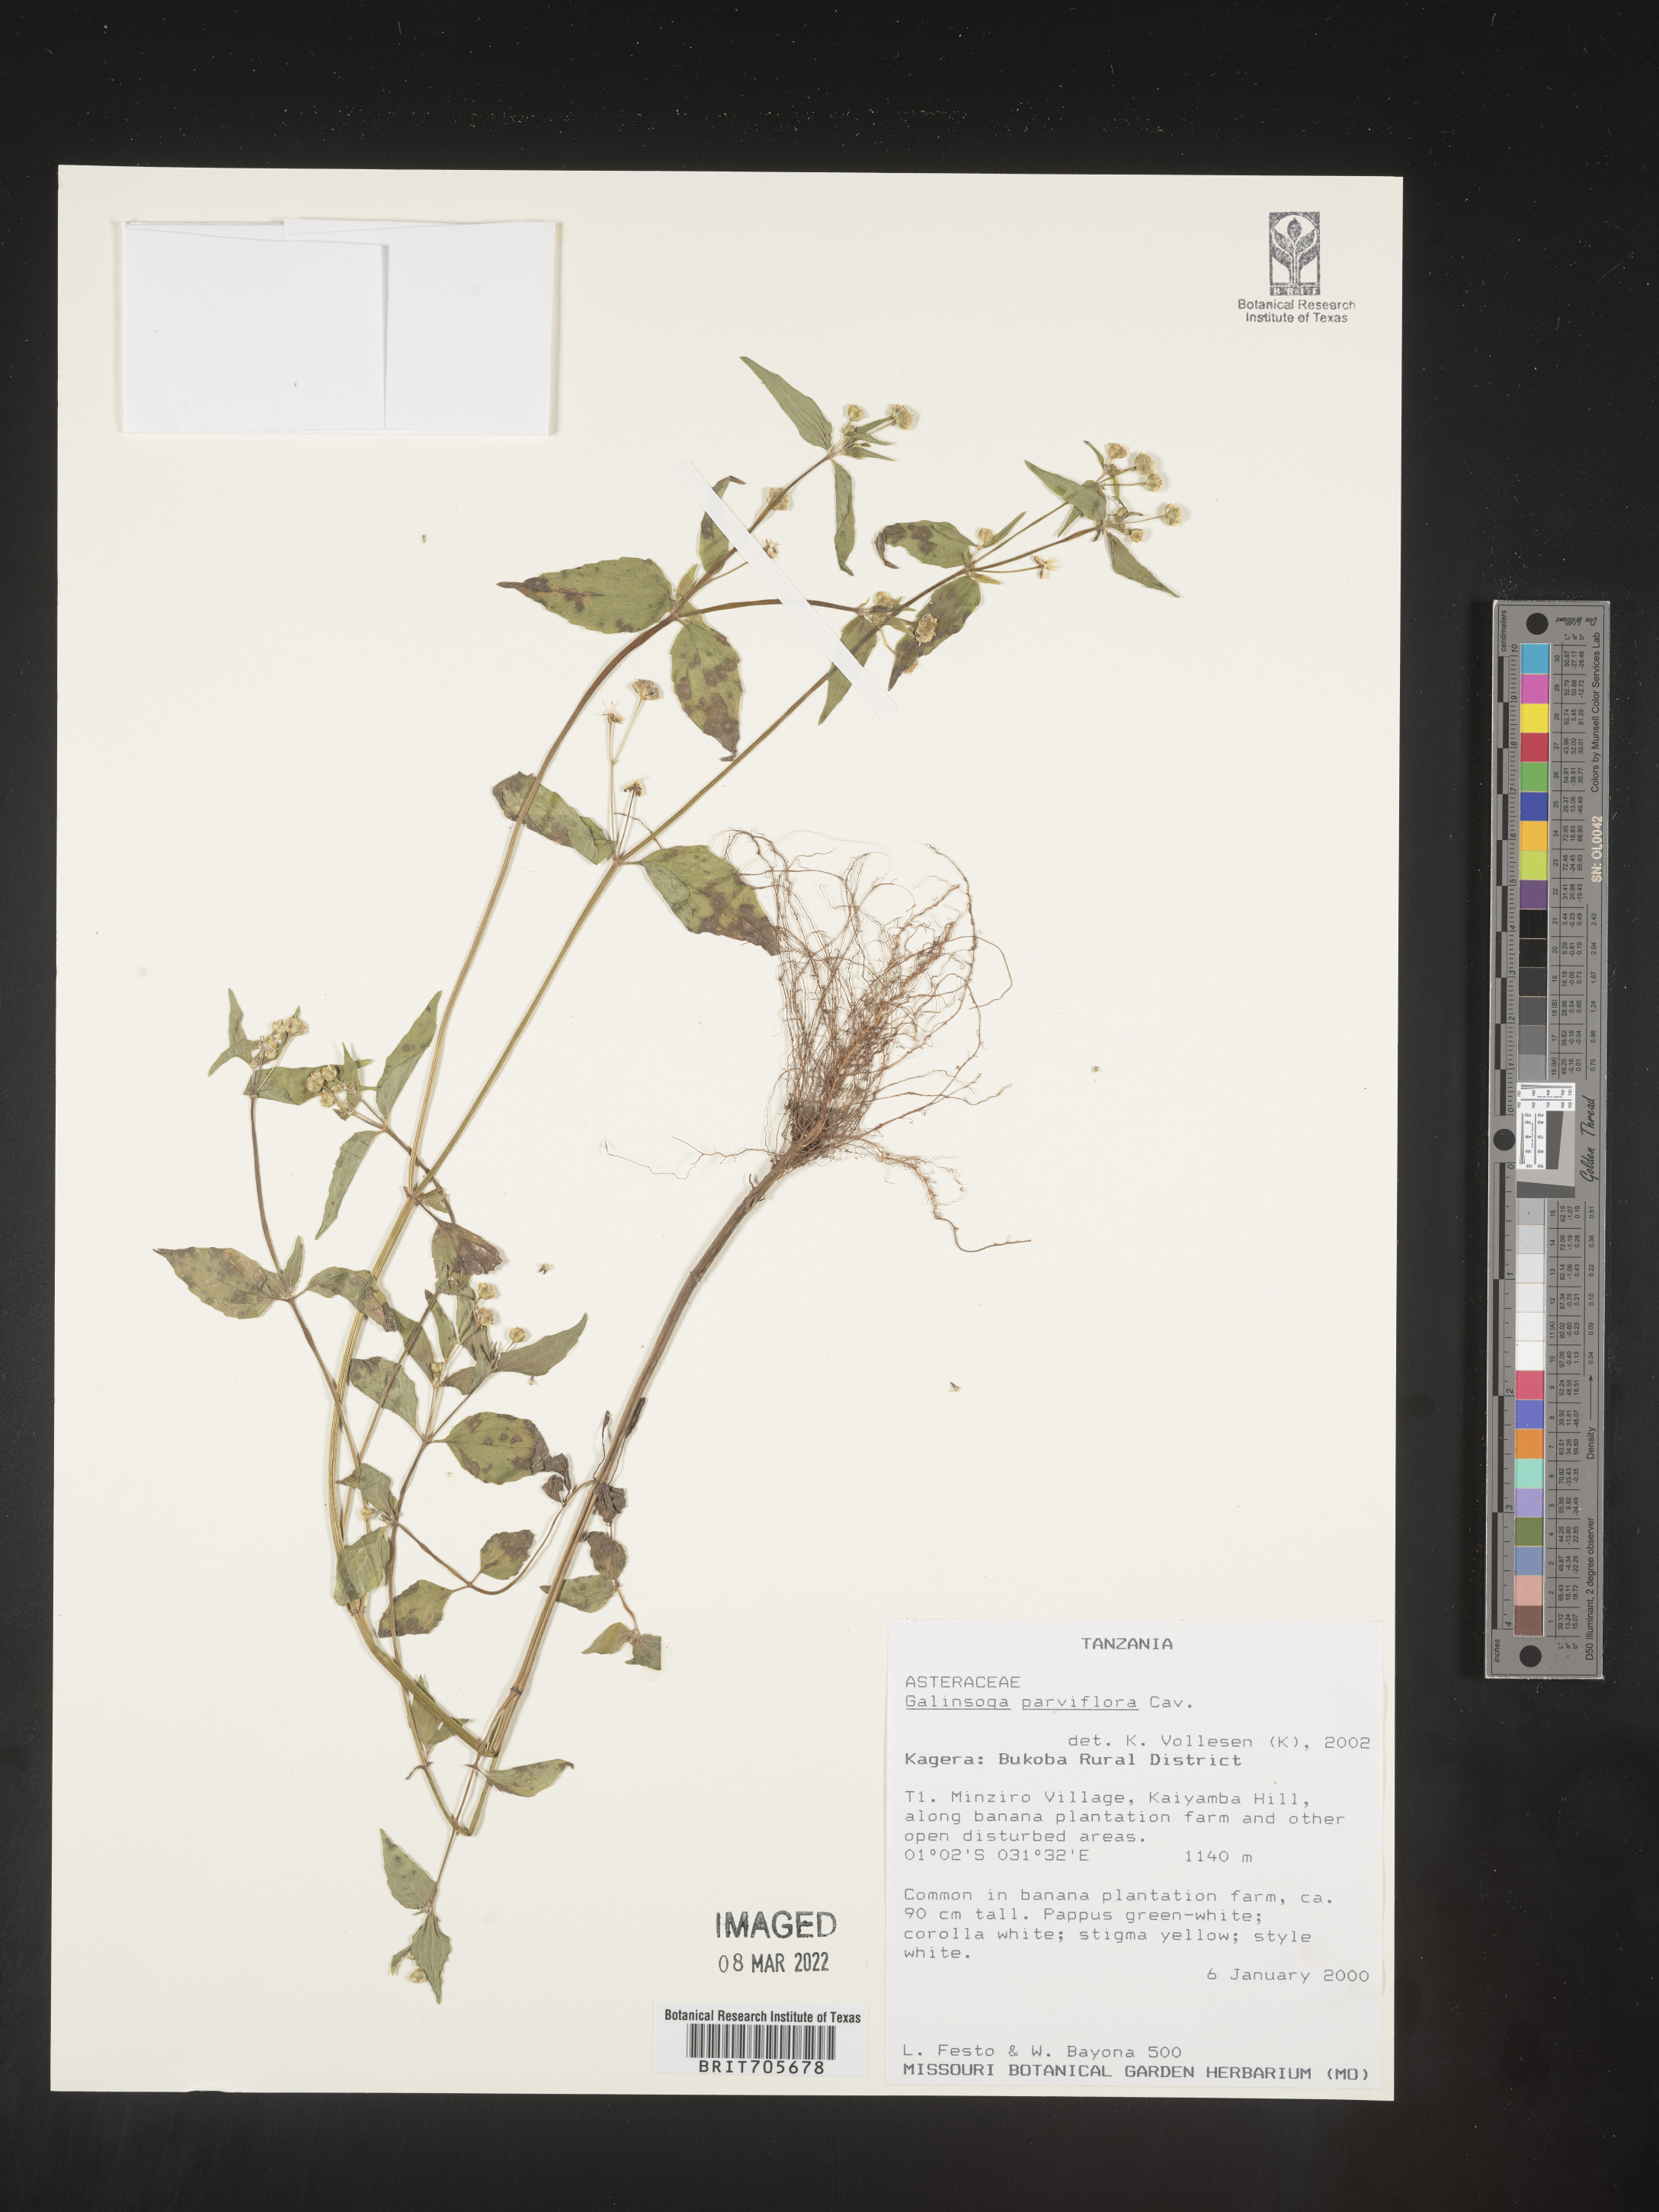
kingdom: Plantae
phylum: Tracheophyta
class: Magnoliopsida
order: Asterales
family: Asteraceae
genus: Galinsoga
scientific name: Galinsoga
